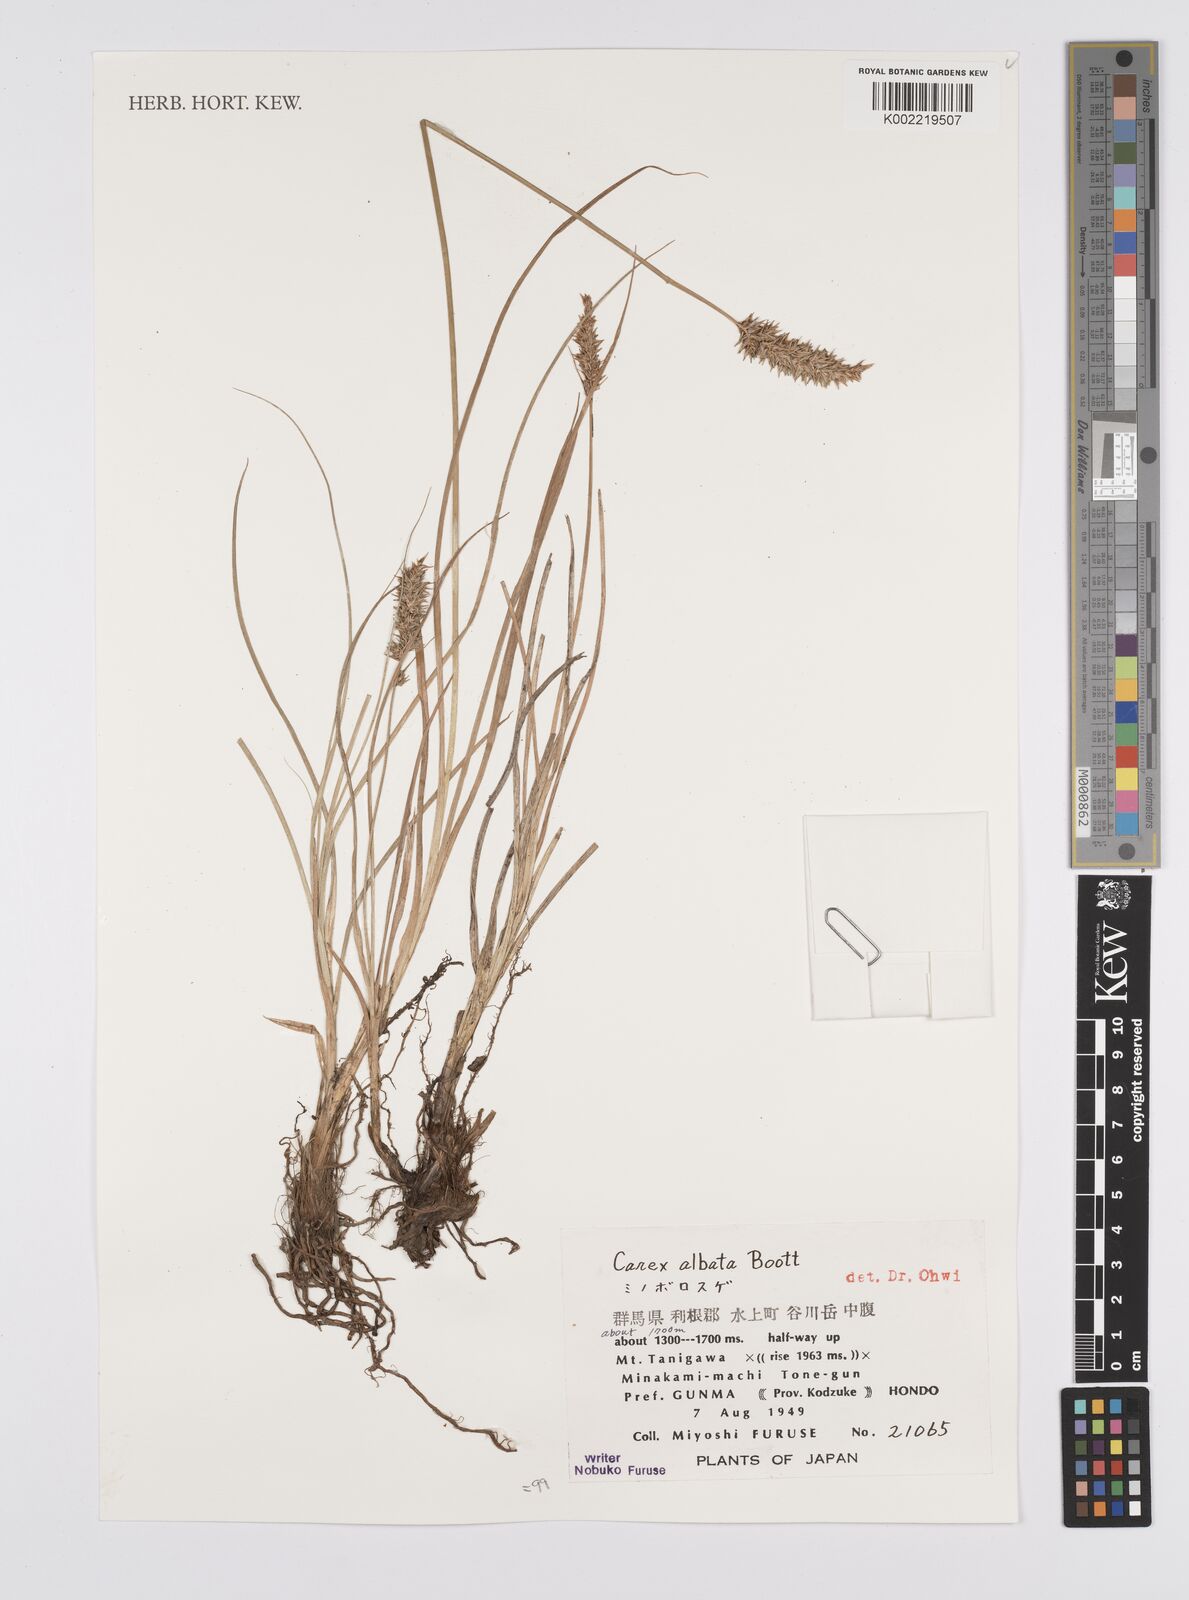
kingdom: Plantae
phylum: Tracheophyta
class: Liliopsida
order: Poales
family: Cyperaceae
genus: Carex
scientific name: Carex nubigena
